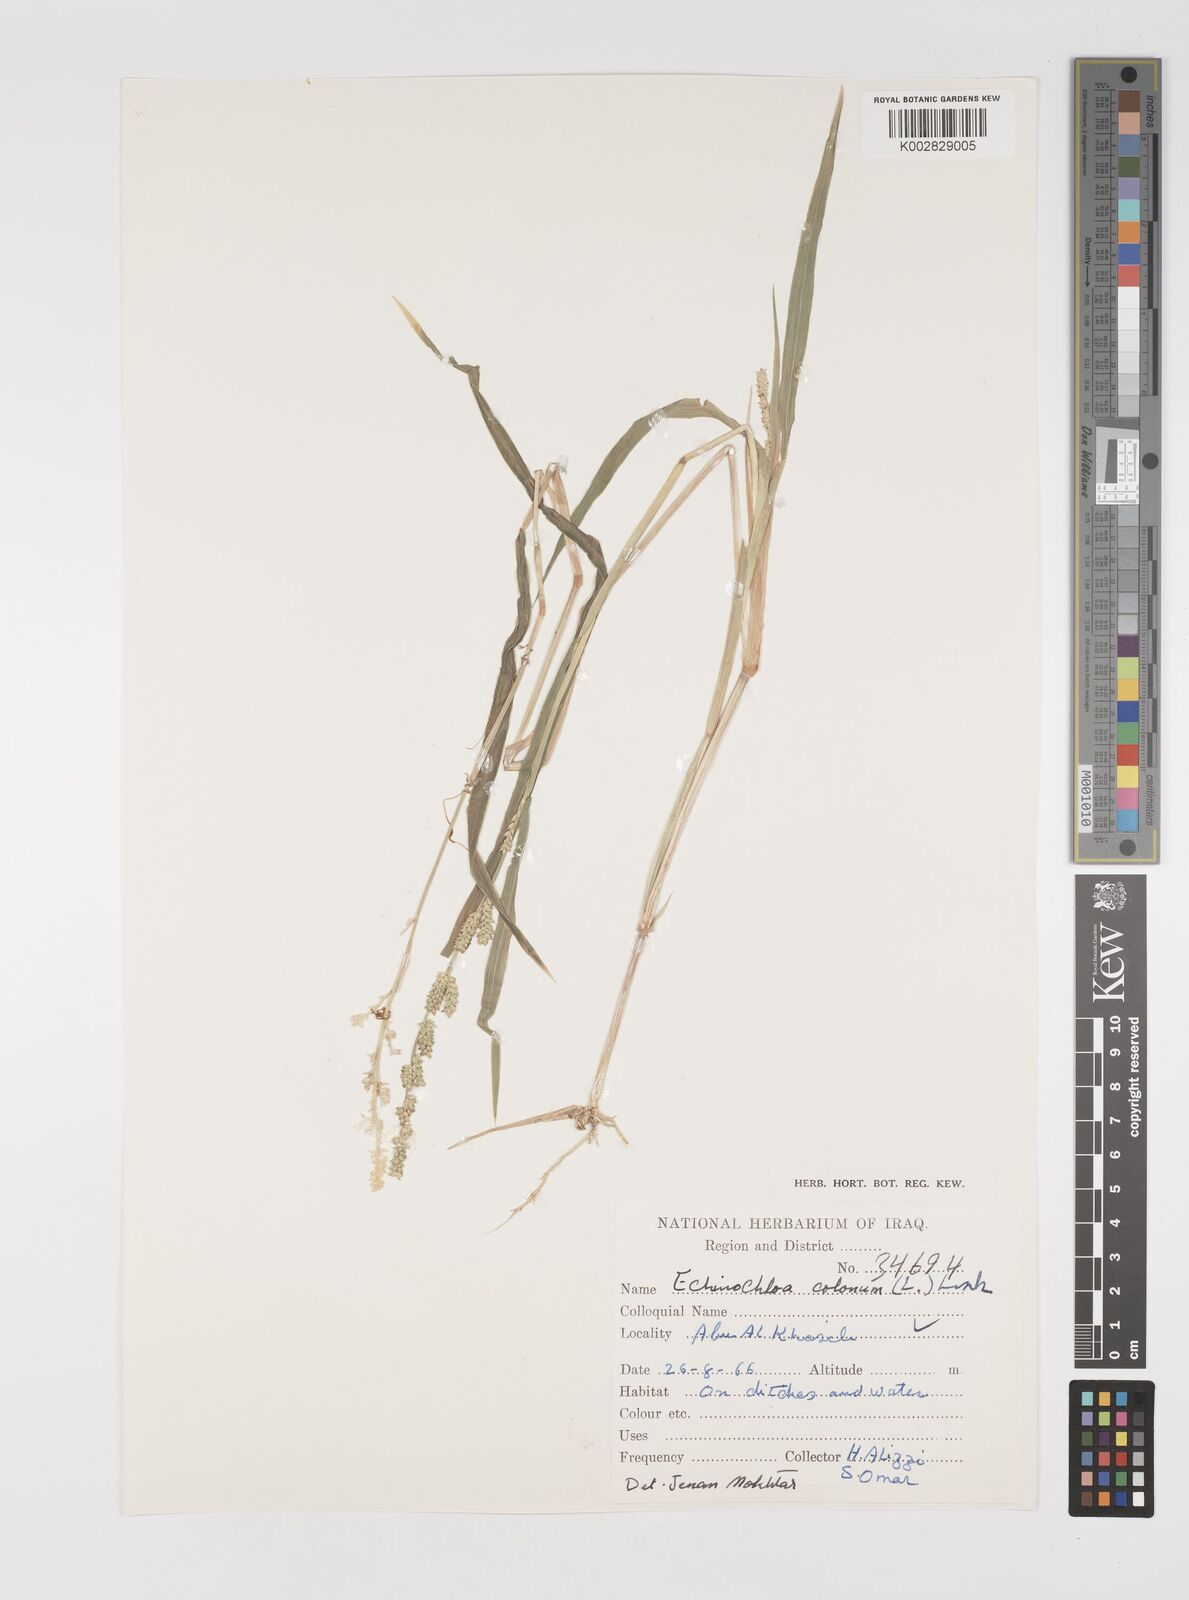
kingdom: Plantae
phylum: Tracheophyta
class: Liliopsida
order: Poales
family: Poaceae
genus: Echinochloa
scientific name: Echinochloa colonum
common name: Jungle rice
